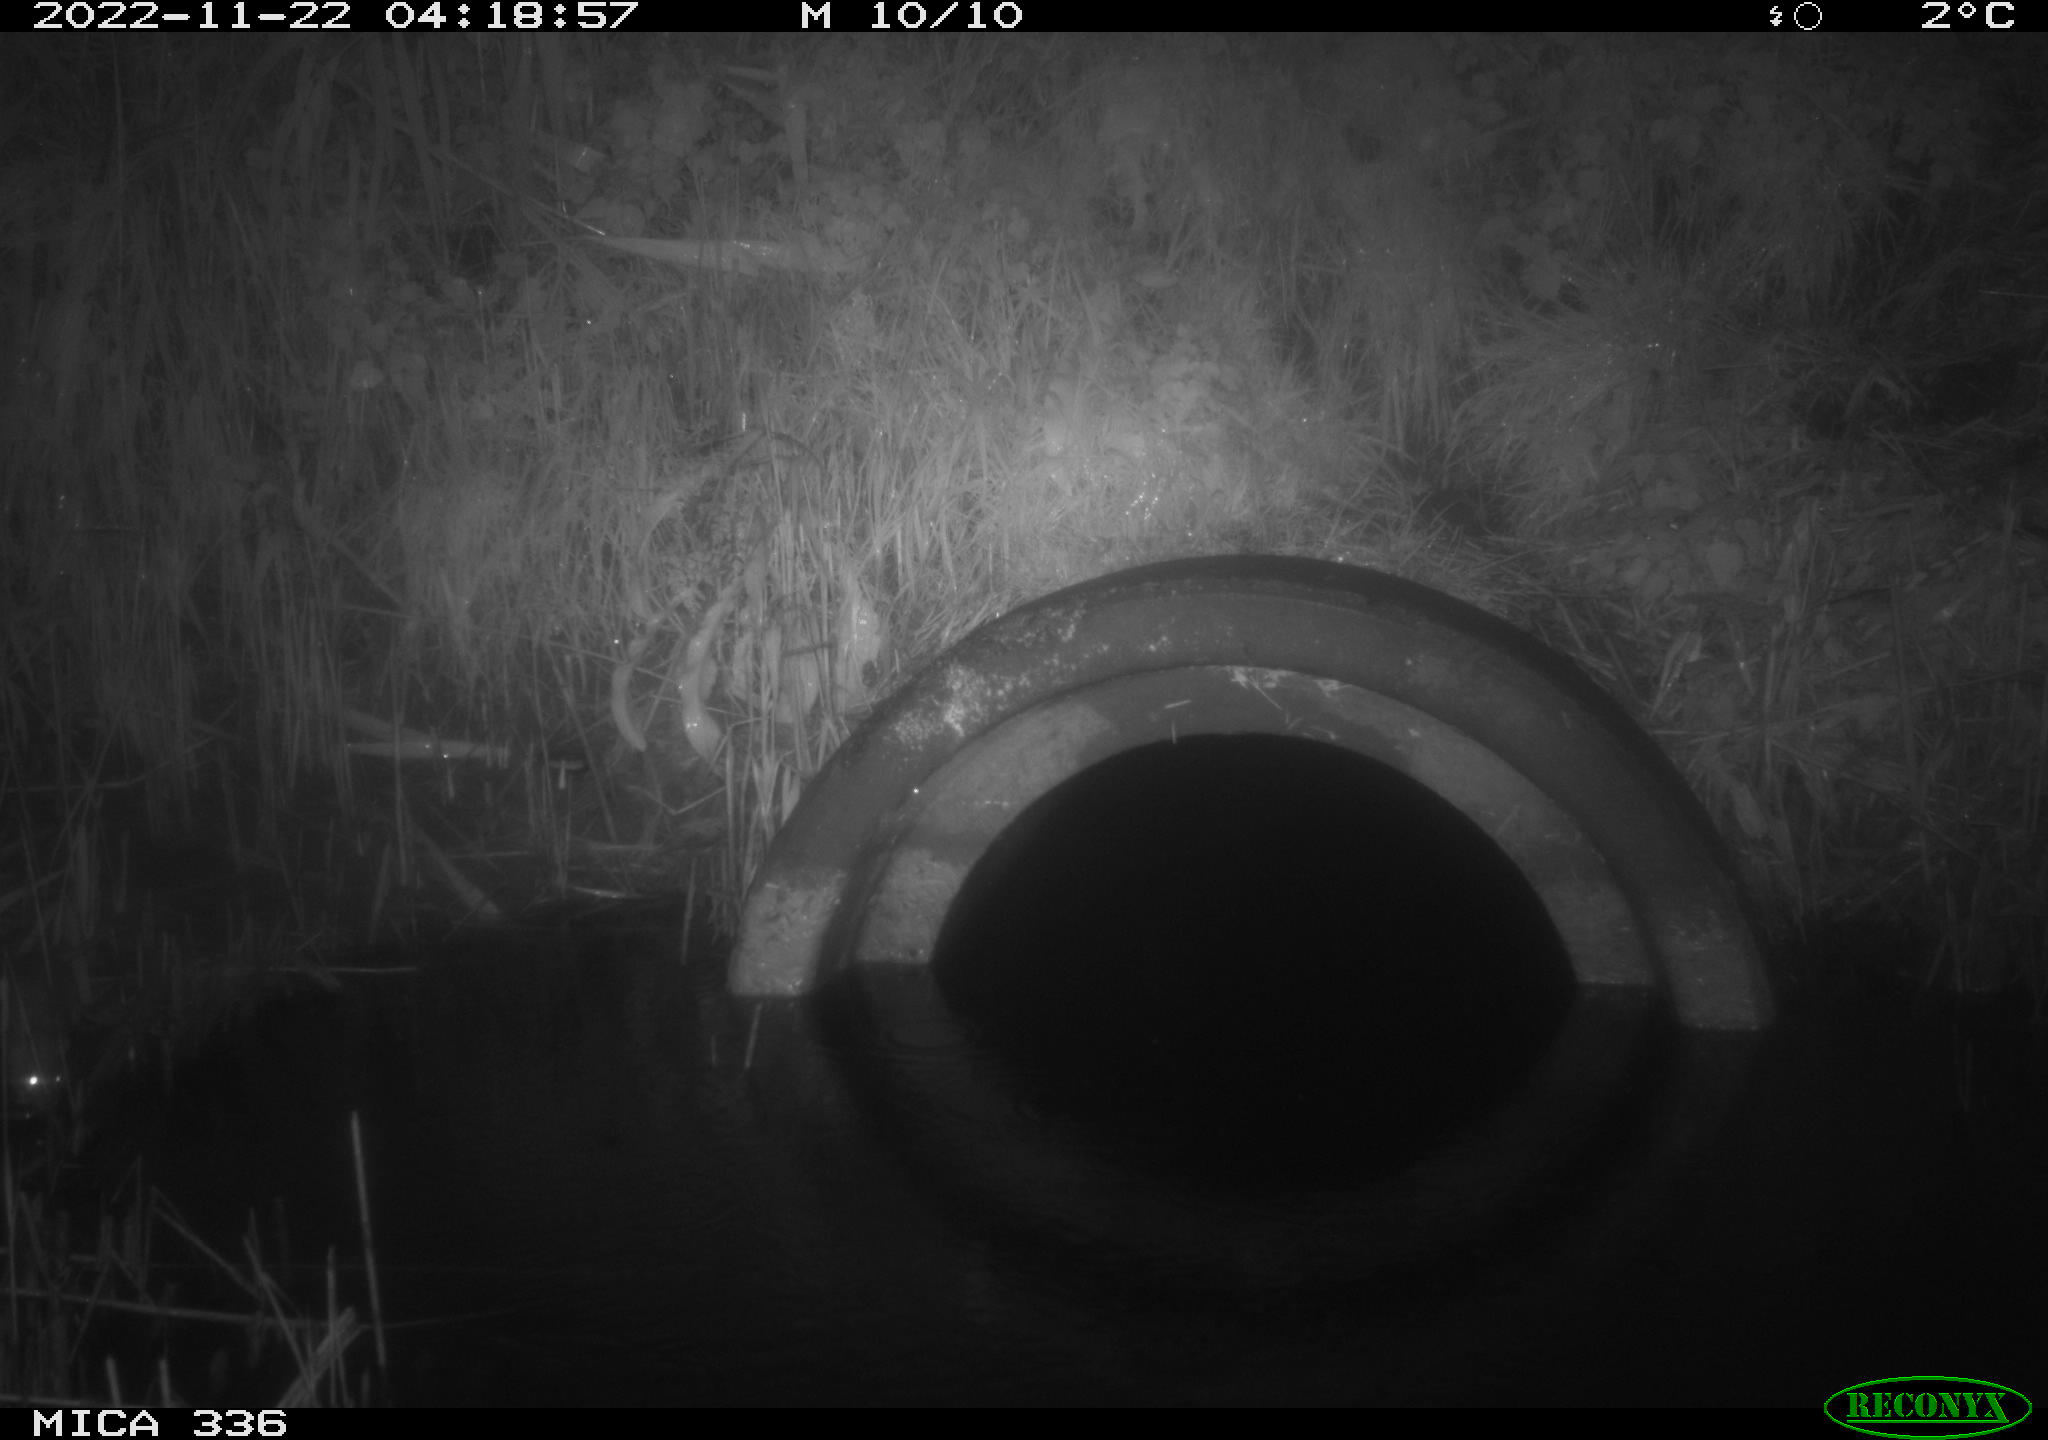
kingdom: Animalia
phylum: Chordata
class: Mammalia
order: Rodentia
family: Muridae
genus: Rattus
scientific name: Rattus norvegicus
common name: Brown rat
